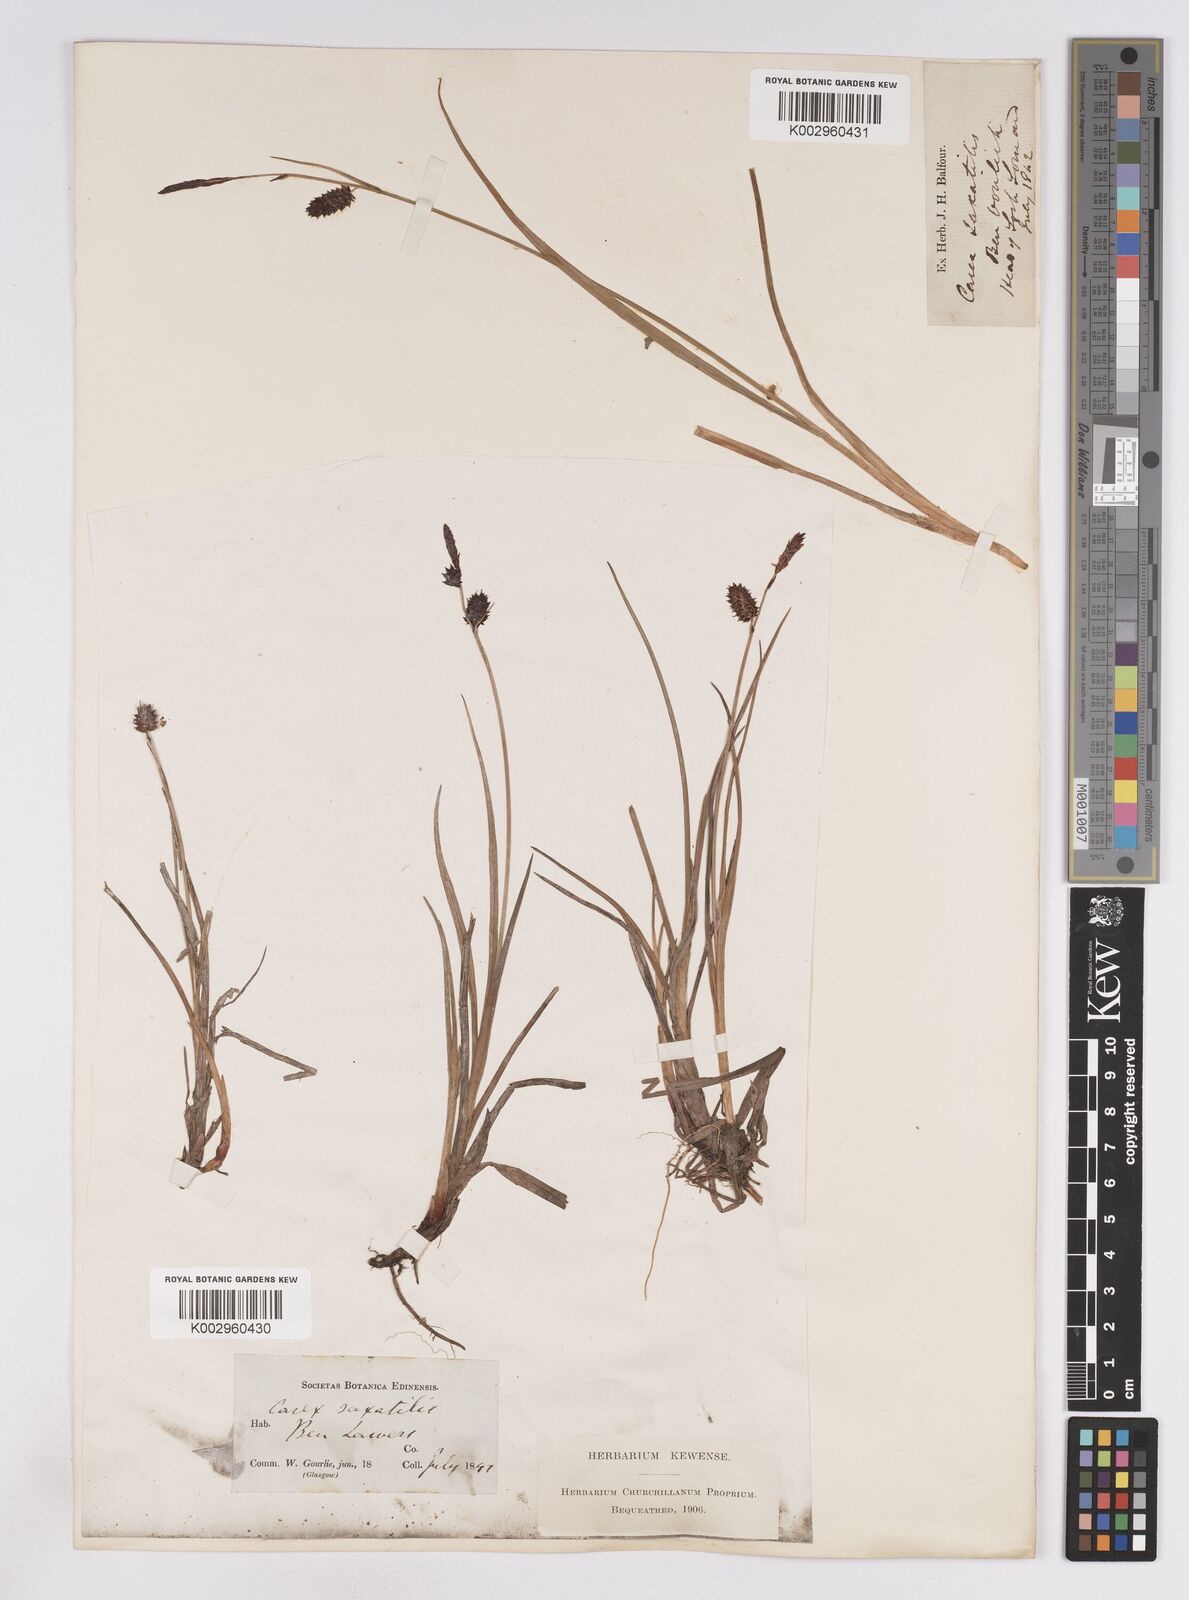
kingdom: Plantae
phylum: Tracheophyta
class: Liliopsida
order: Poales
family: Cyperaceae
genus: Carex
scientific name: Carex saxatilis
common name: Russet sedge
